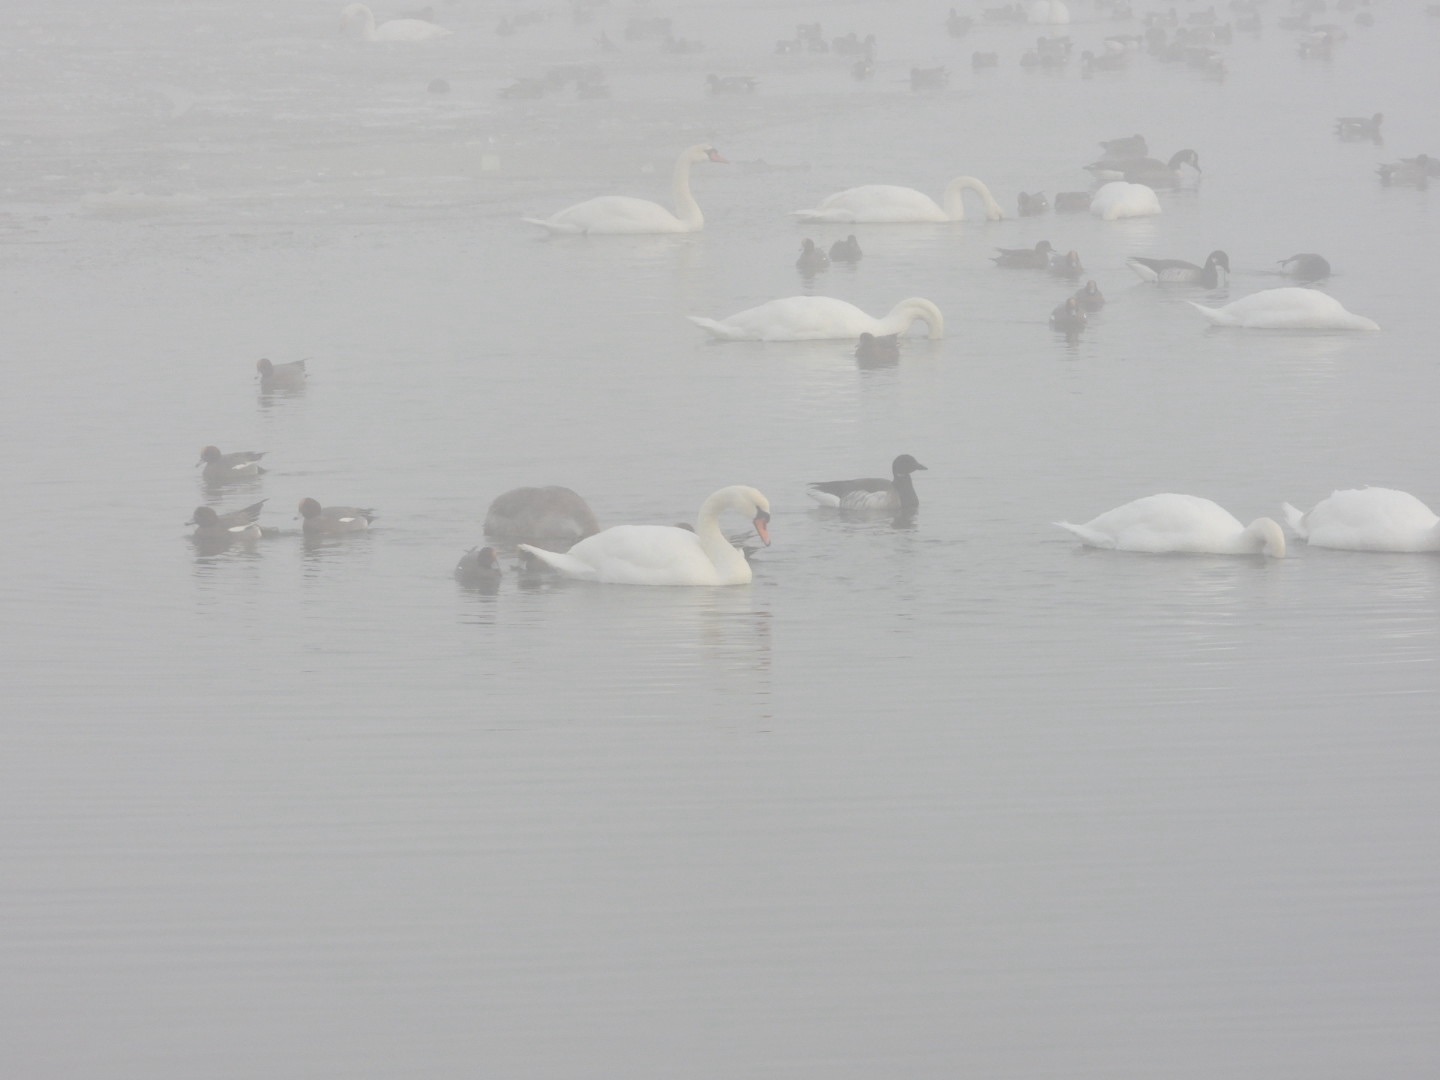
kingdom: Animalia
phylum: Chordata
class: Aves
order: Anseriformes
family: Anatidae
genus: Cygnus
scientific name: Cygnus olor
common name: Knopsvane
